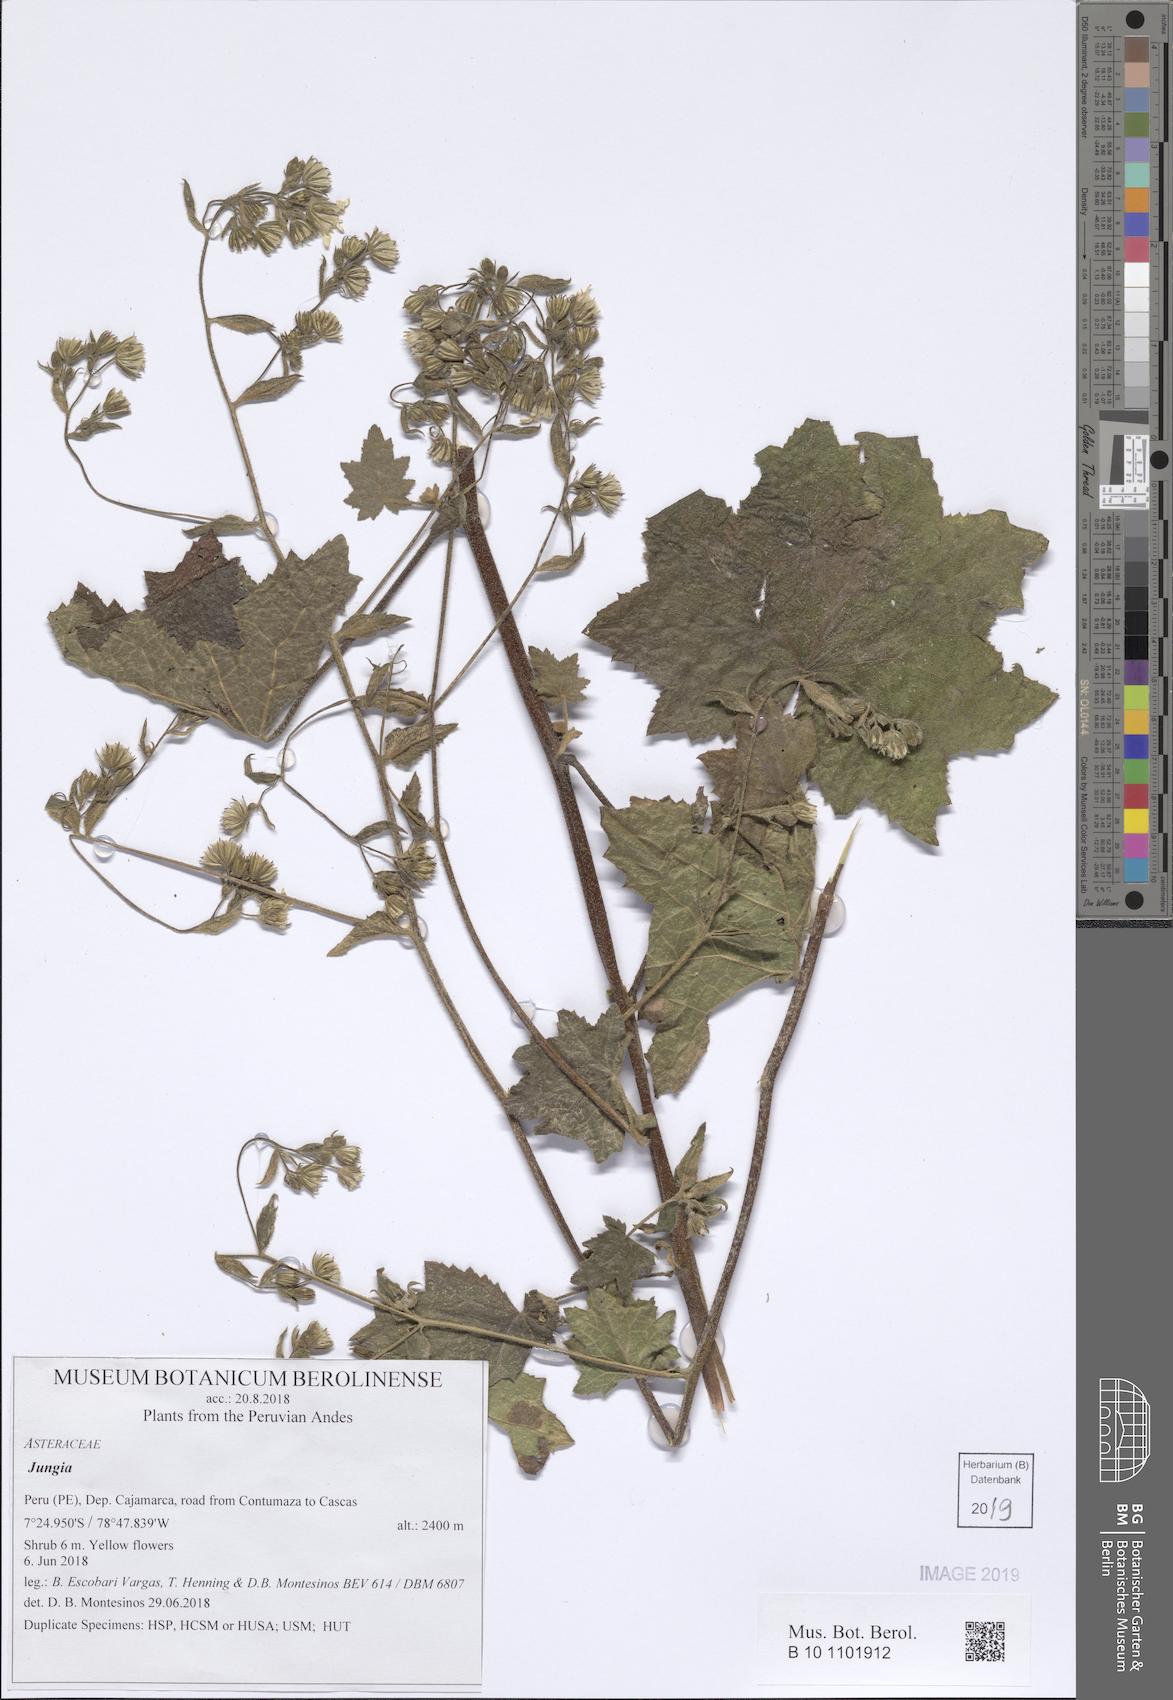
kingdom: Plantae
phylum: Tracheophyta
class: Magnoliopsida
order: Asterales
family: Asteraceae
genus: Jungia
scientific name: Jungia gracilis
